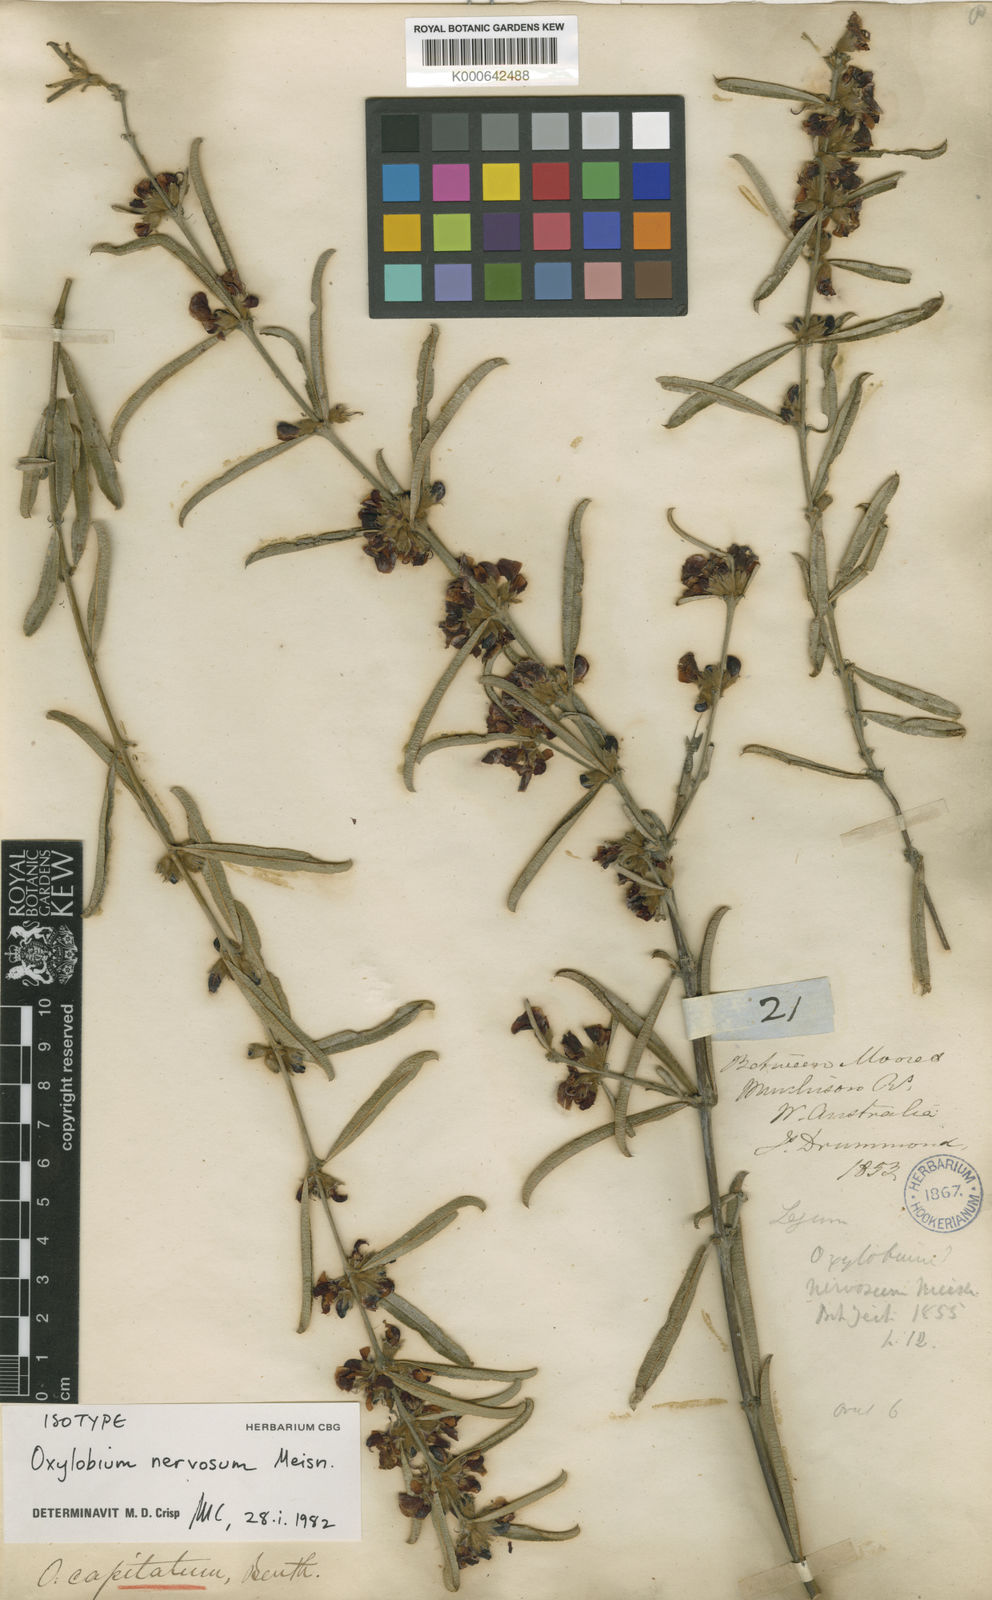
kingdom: Plantae
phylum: Tracheophyta
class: Magnoliopsida
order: Fabales
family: Fabaceae
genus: Gastrolobium
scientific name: Gastrolobium nervosum
